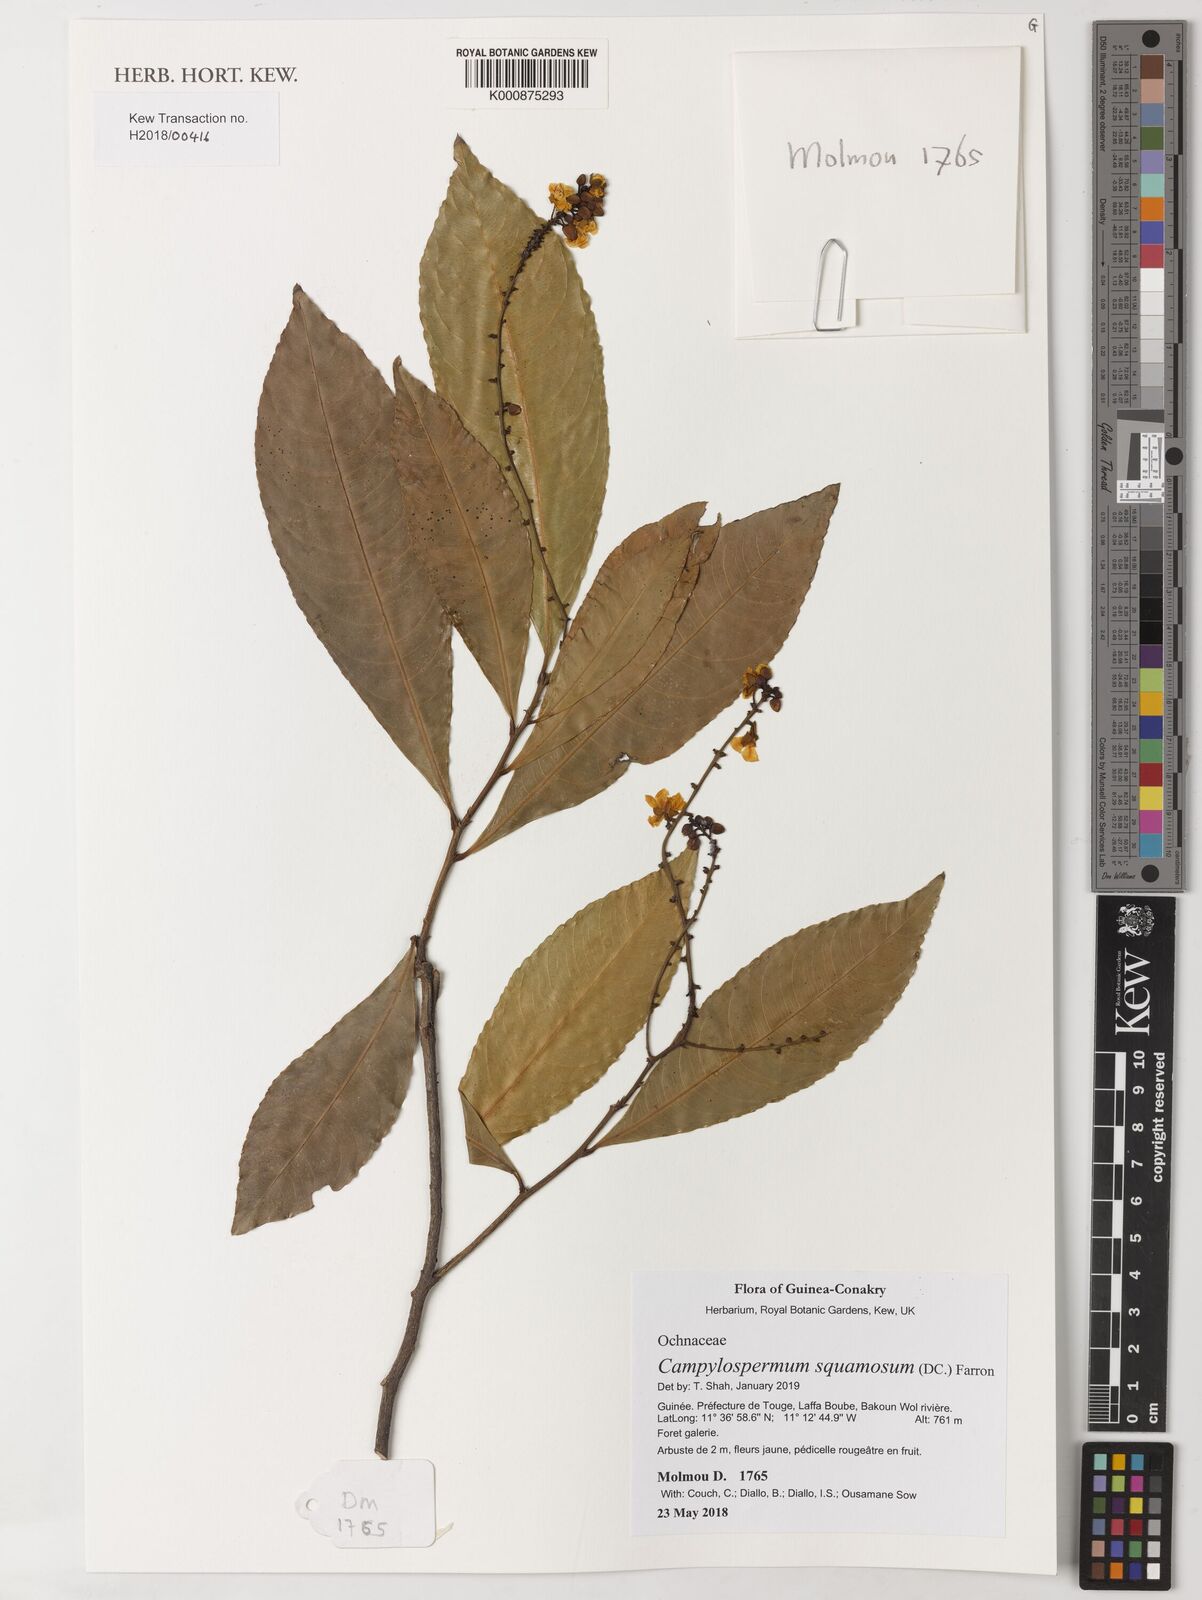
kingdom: Plantae
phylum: Tracheophyta
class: Magnoliopsida
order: Malpighiales
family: Ochnaceae
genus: Campylospermum
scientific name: Campylospermum squamosum
